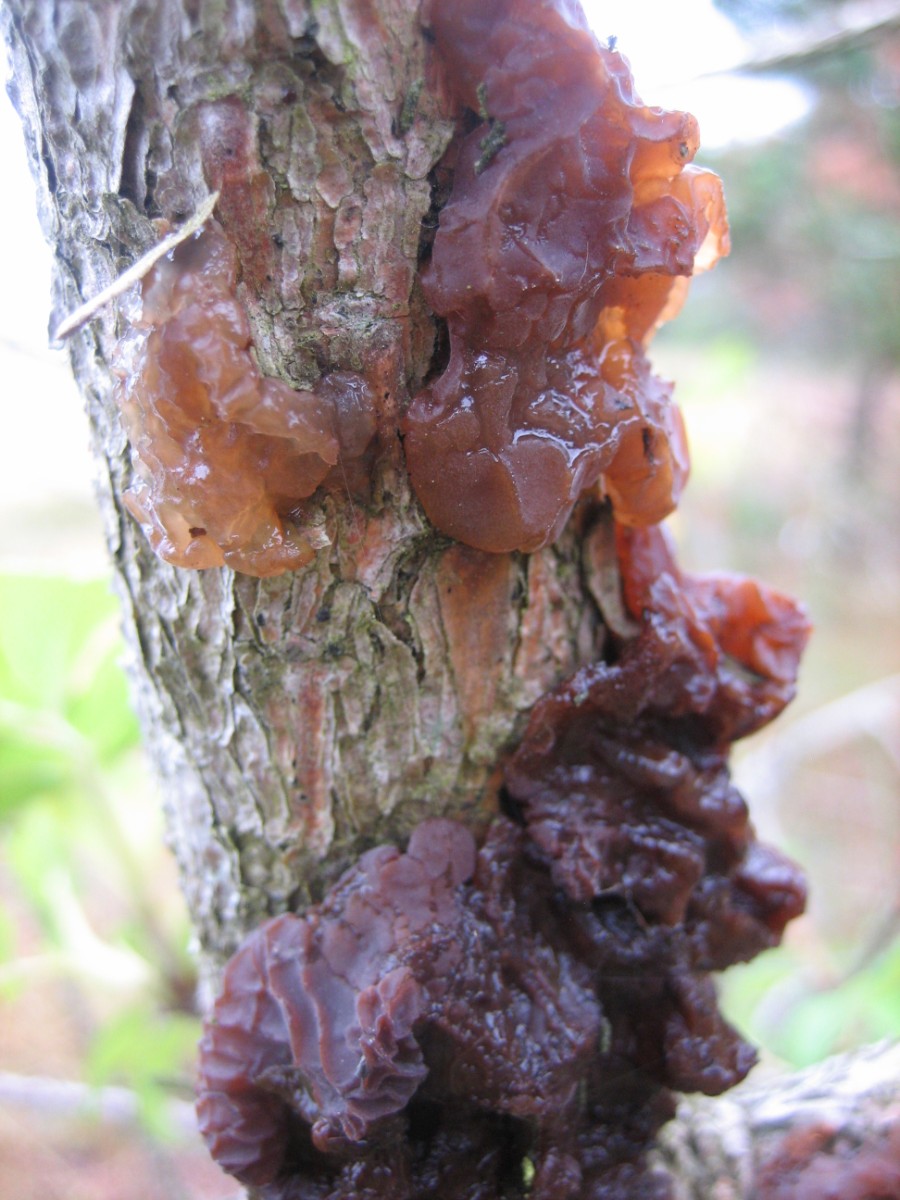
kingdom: Fungi
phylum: Basidiomycota
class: Agaricomycetes
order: Auriculariales
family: Auriculariaceae
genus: Exidia
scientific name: Exidia saccharina
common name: kandis-bævretop
